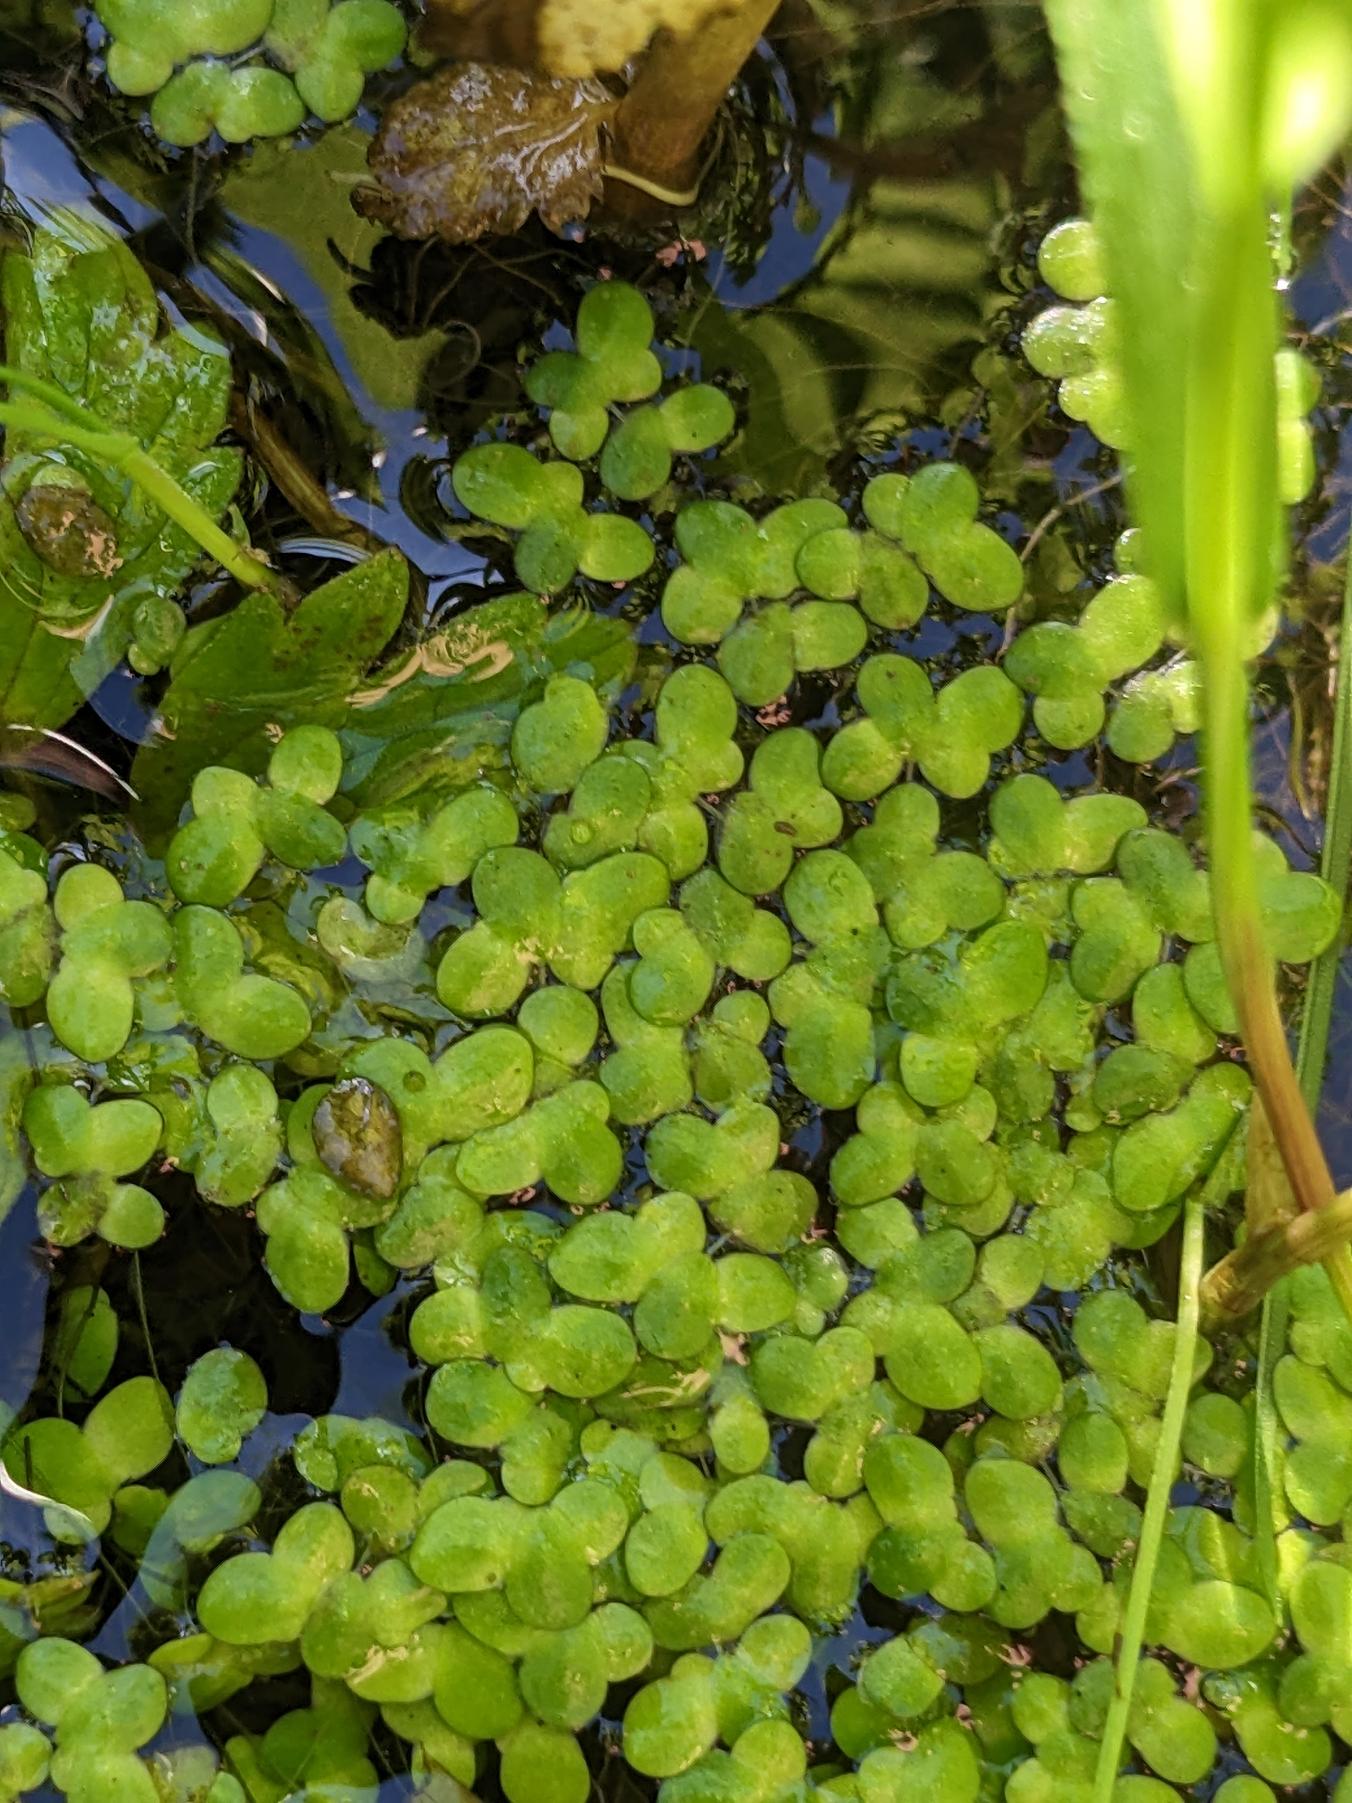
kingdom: Plantae
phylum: Tracheophyta
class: Liliopsida
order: Alismatales
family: Araceae
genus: Lemna
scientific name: Lemna minor
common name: Liden andemad
